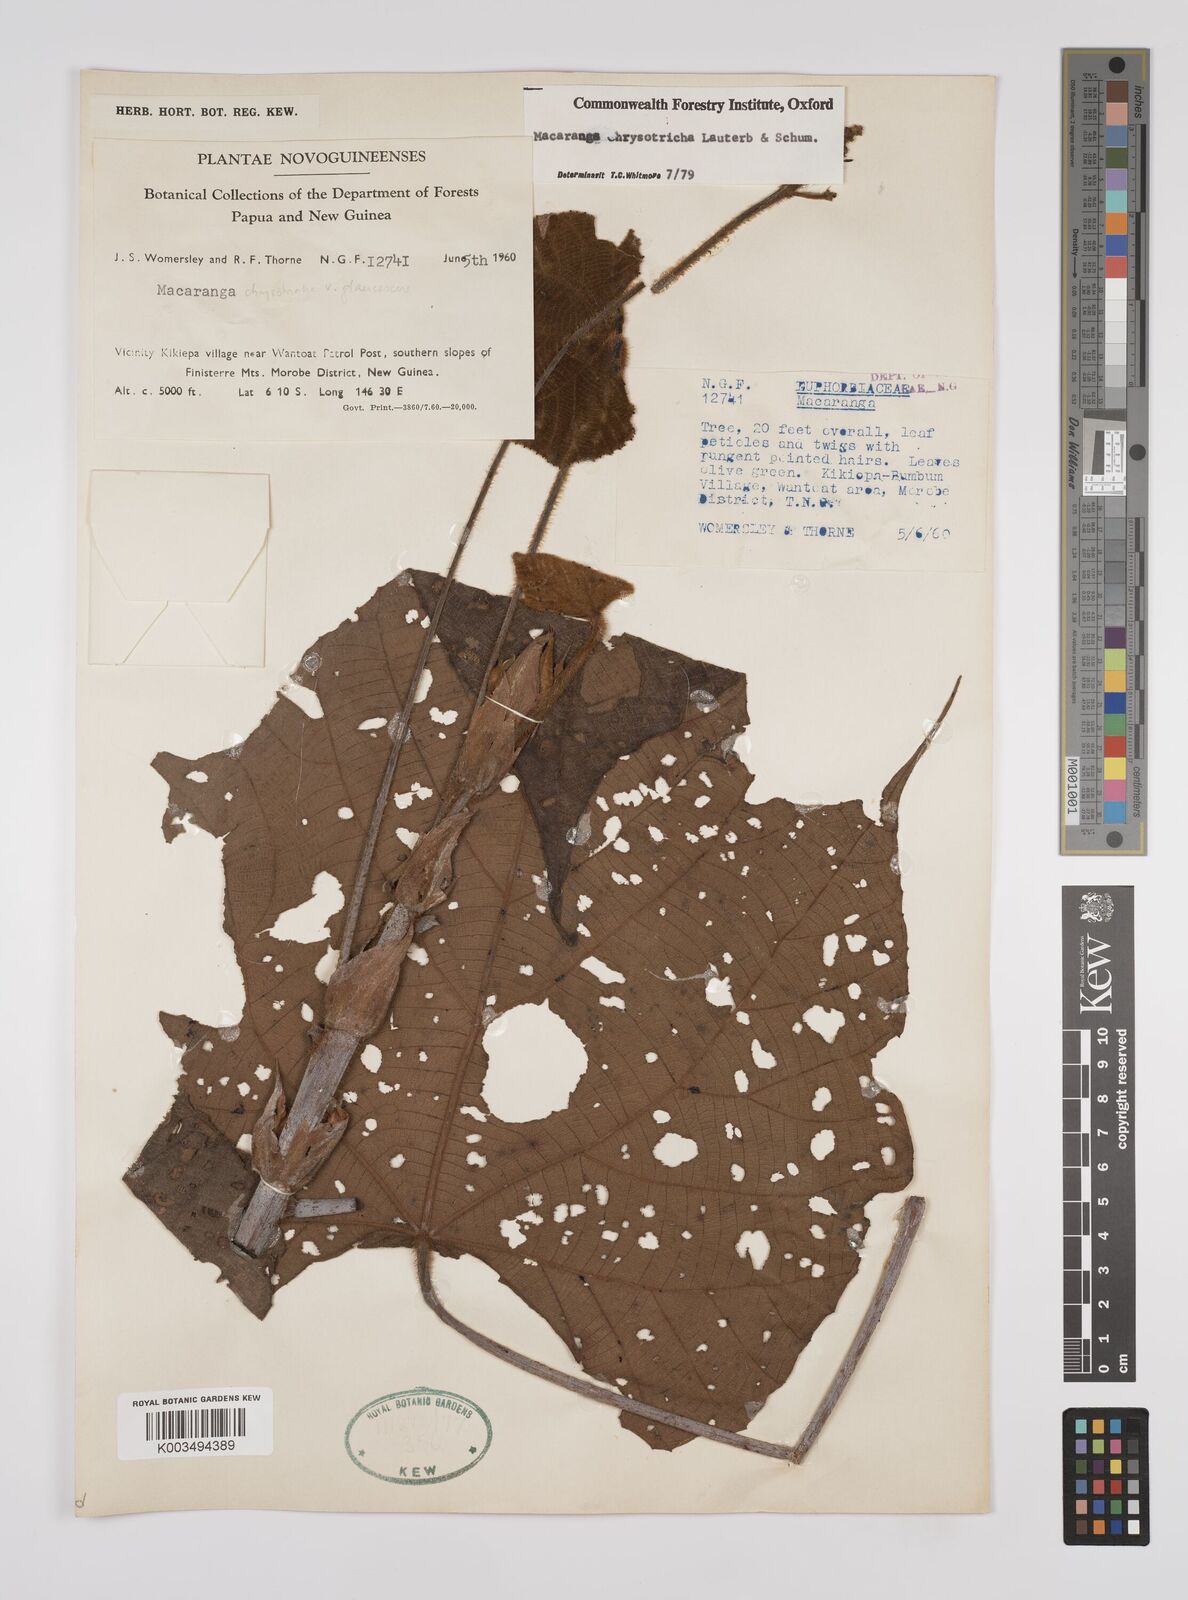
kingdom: Plantae
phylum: Tracheophyta
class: Magnoliopsida
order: Malpighiales
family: Euphorbiaceae
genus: Macaranga
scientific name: Macaranga chrysotricha
